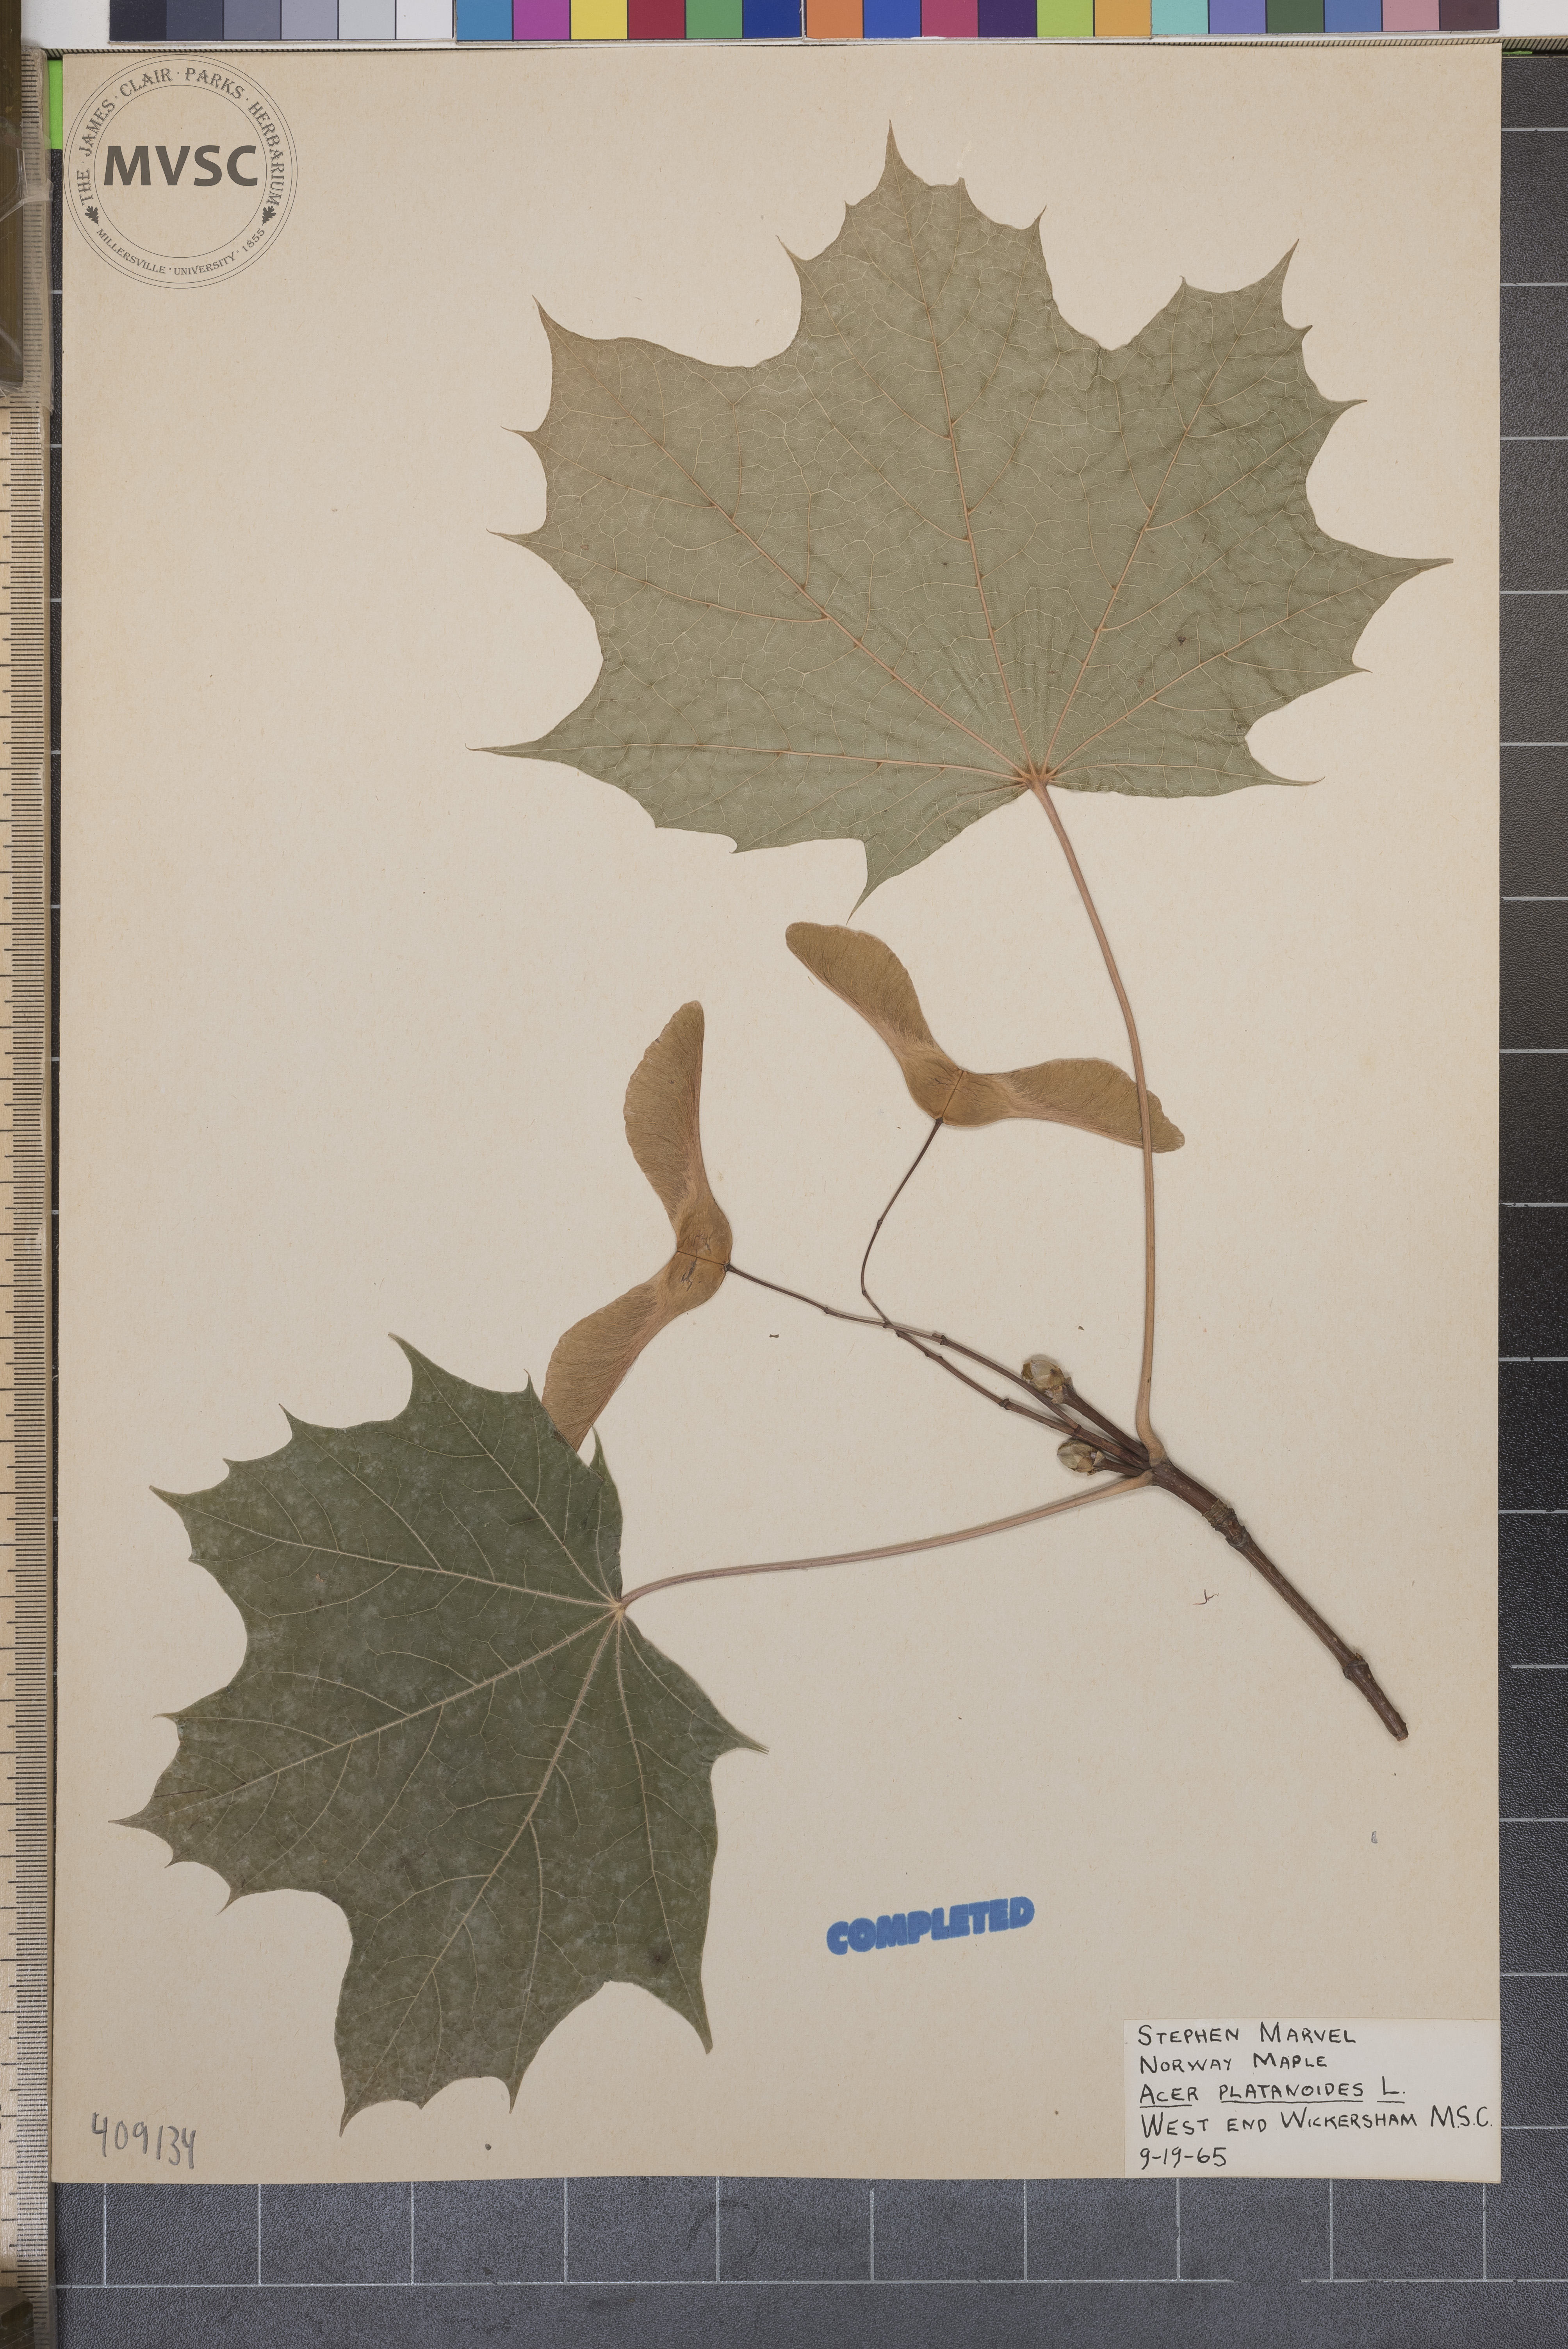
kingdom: Plantae
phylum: Tracheophyta
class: Magnoliopsida
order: Sapindales
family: Sapindaceae
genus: Acer
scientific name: Acer platanoides
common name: Norway maple
